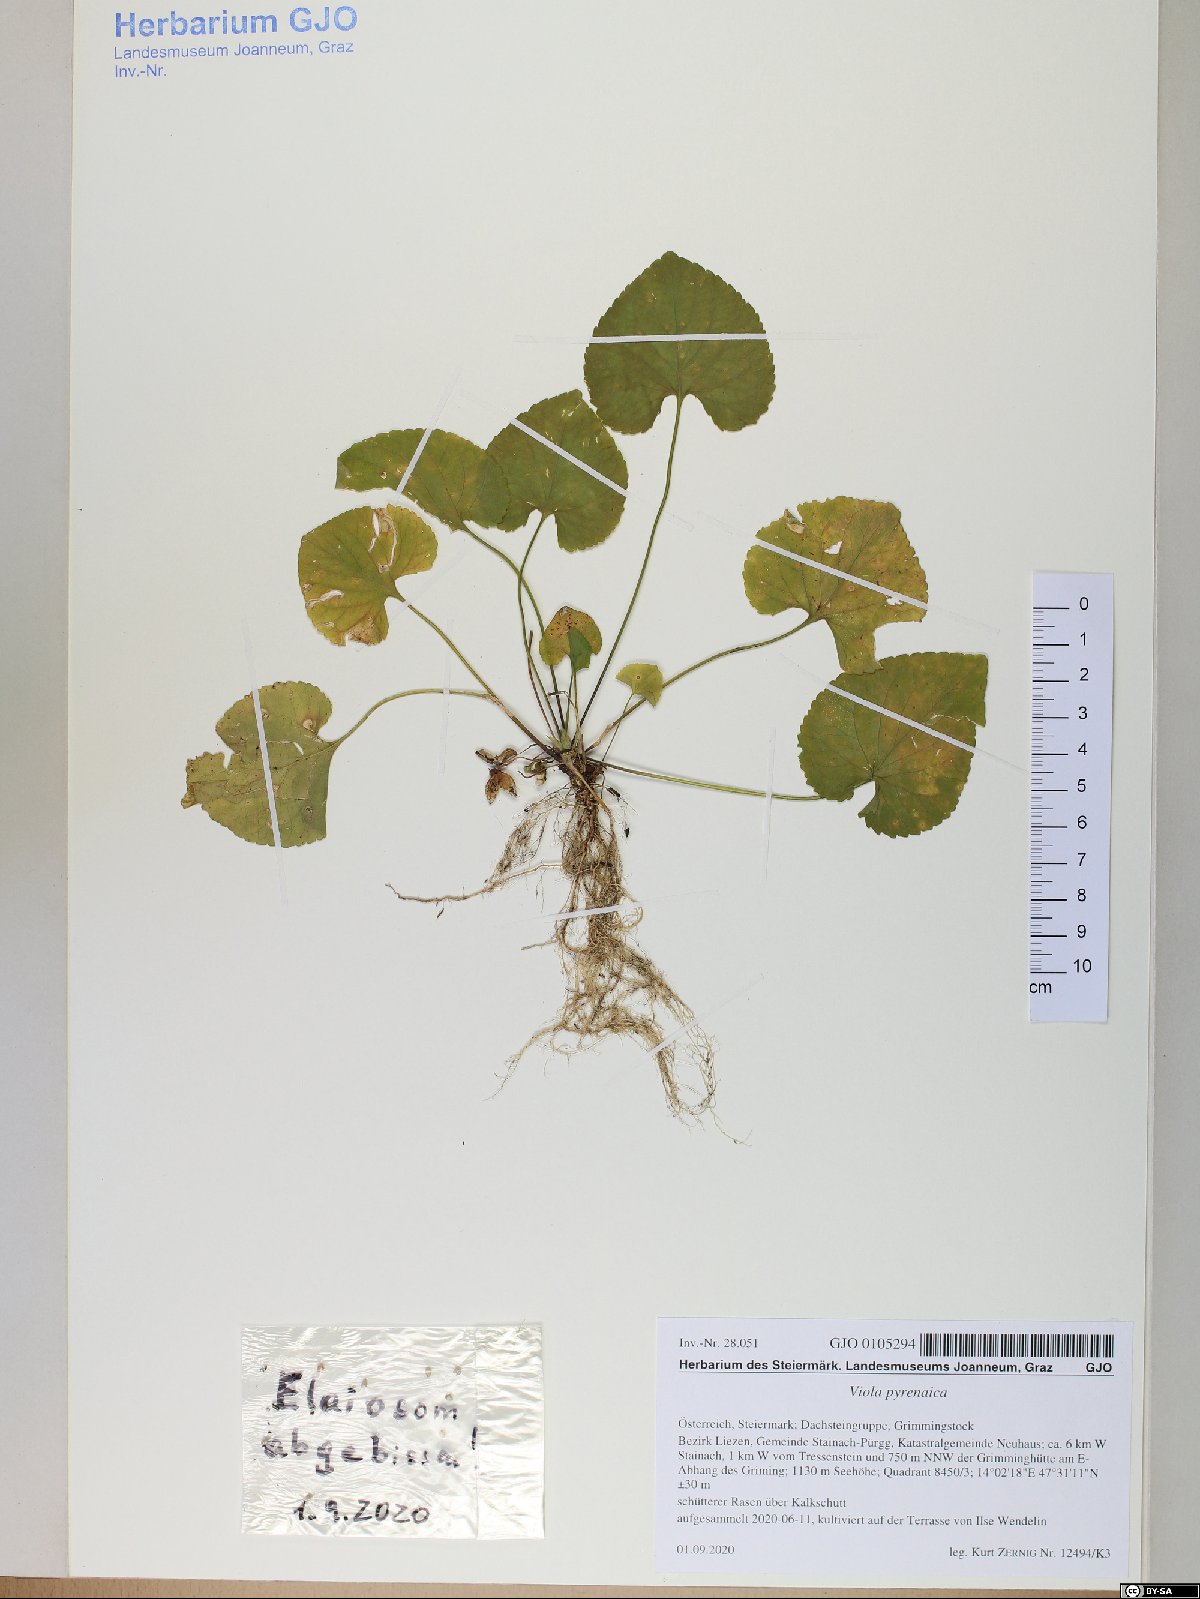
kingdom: Plantae
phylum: Tracheophyta
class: Magnoliopsida
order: Malpighiales
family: Violaceae
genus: Viola
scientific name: Viola pyrenaica
